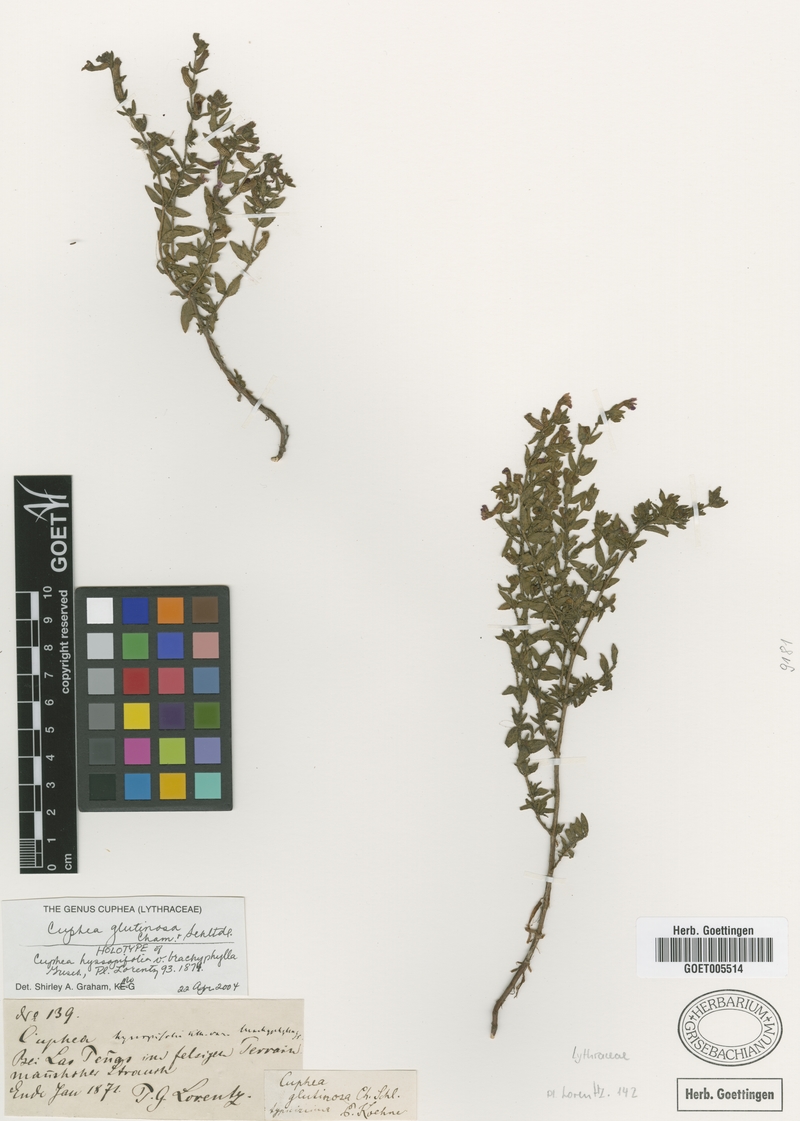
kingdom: Plantae
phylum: Tracheophyta
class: Magnoliopsida
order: Myrtales
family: Lythraceae
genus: Cuphea
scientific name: Cuphea glutinosa
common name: Sticky waxweed
